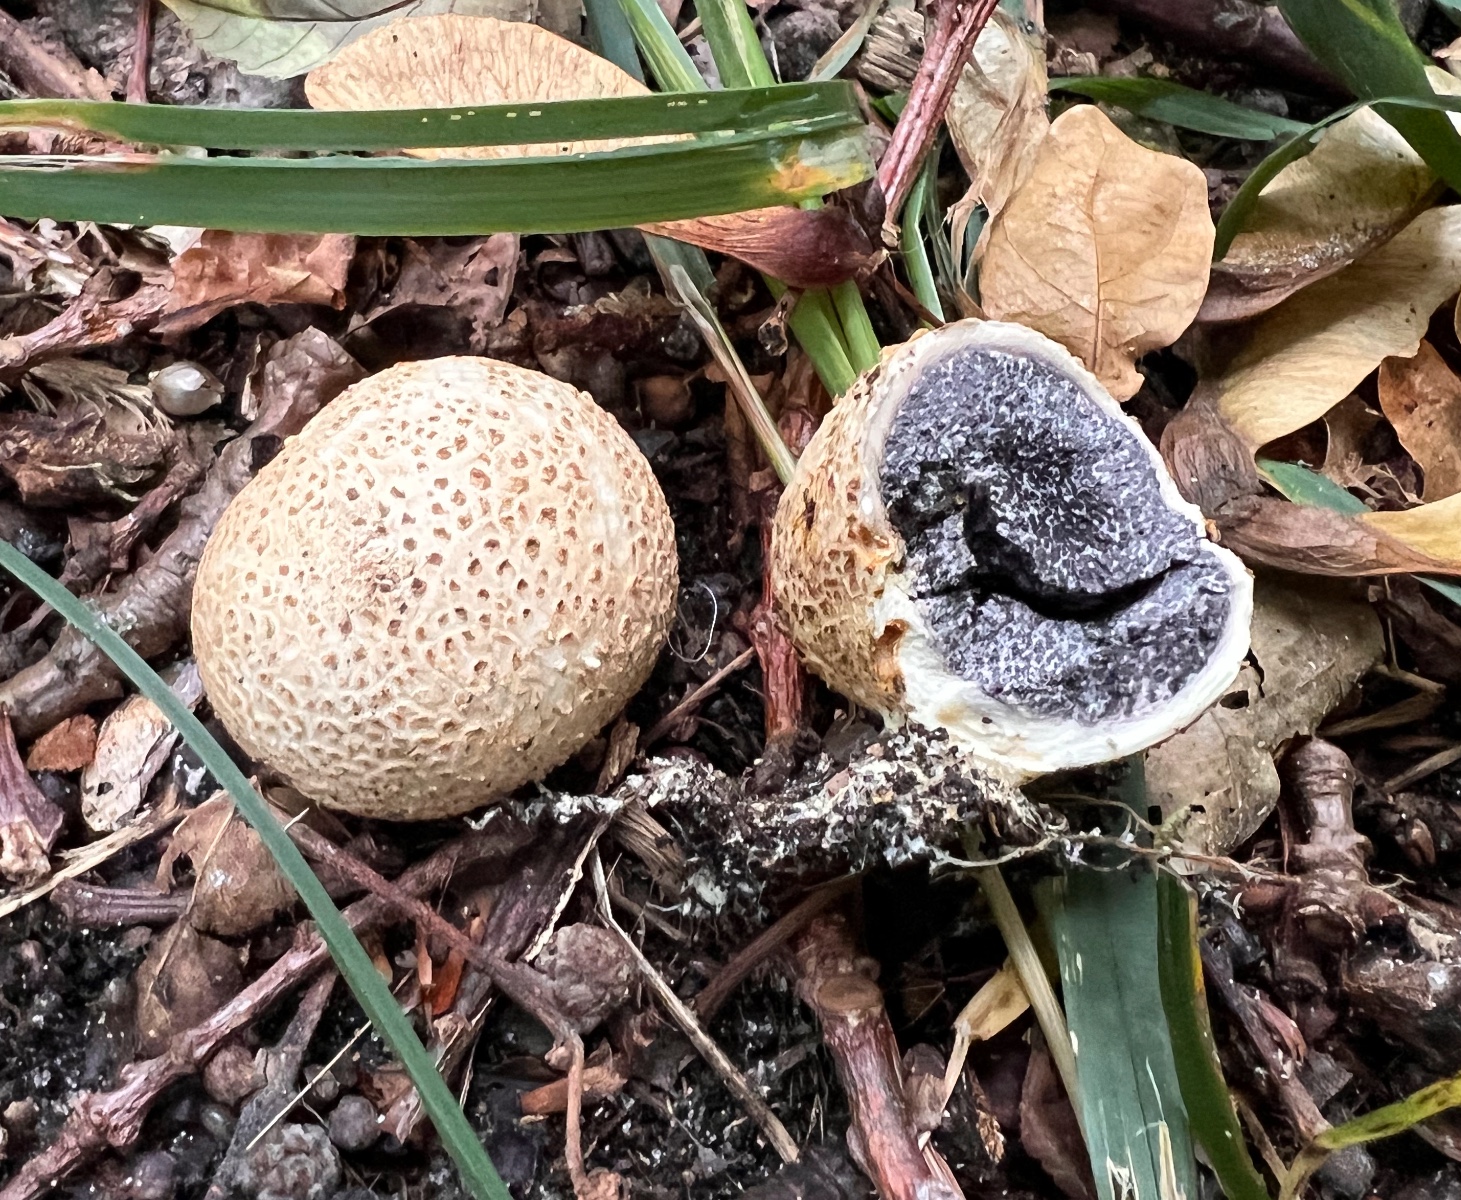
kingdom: Fungi
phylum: Basidiomycota
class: Agaricomycetes
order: Boletales
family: Sclerodermataceae
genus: Scleroderma
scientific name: Scleroderma citrinum
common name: almindelig bruskbold
